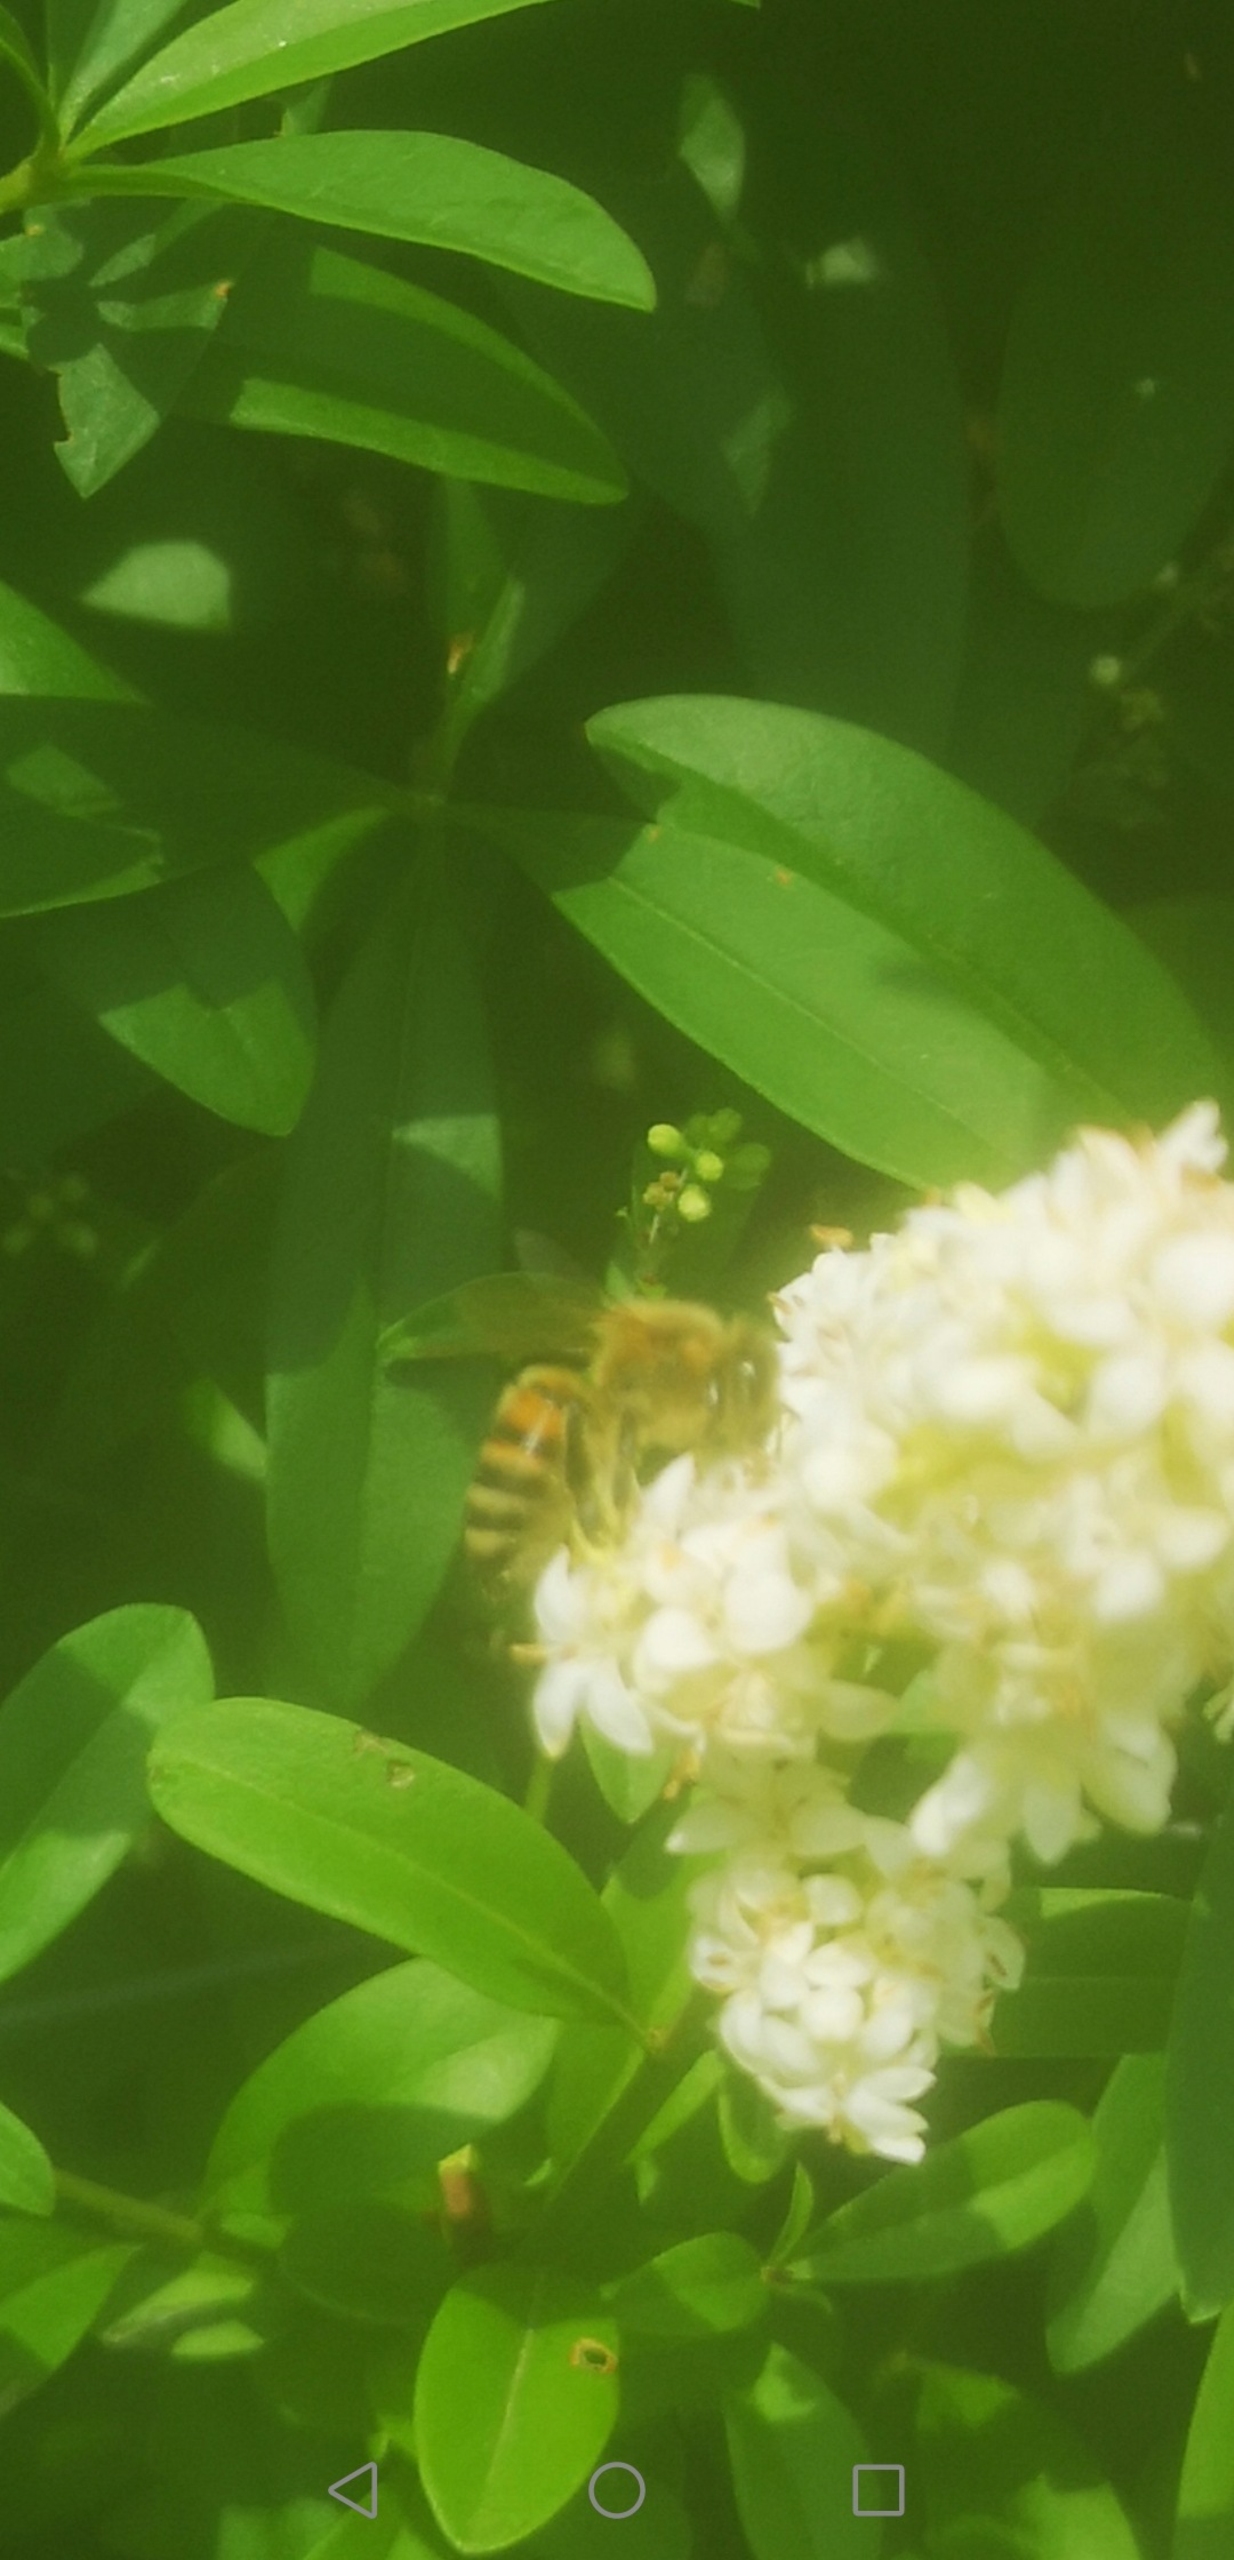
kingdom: Animalia
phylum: Arthropoda
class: Insecta
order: Hymenoptera
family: Apidae
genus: Apis
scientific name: Apis mellifera
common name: Honningbi
